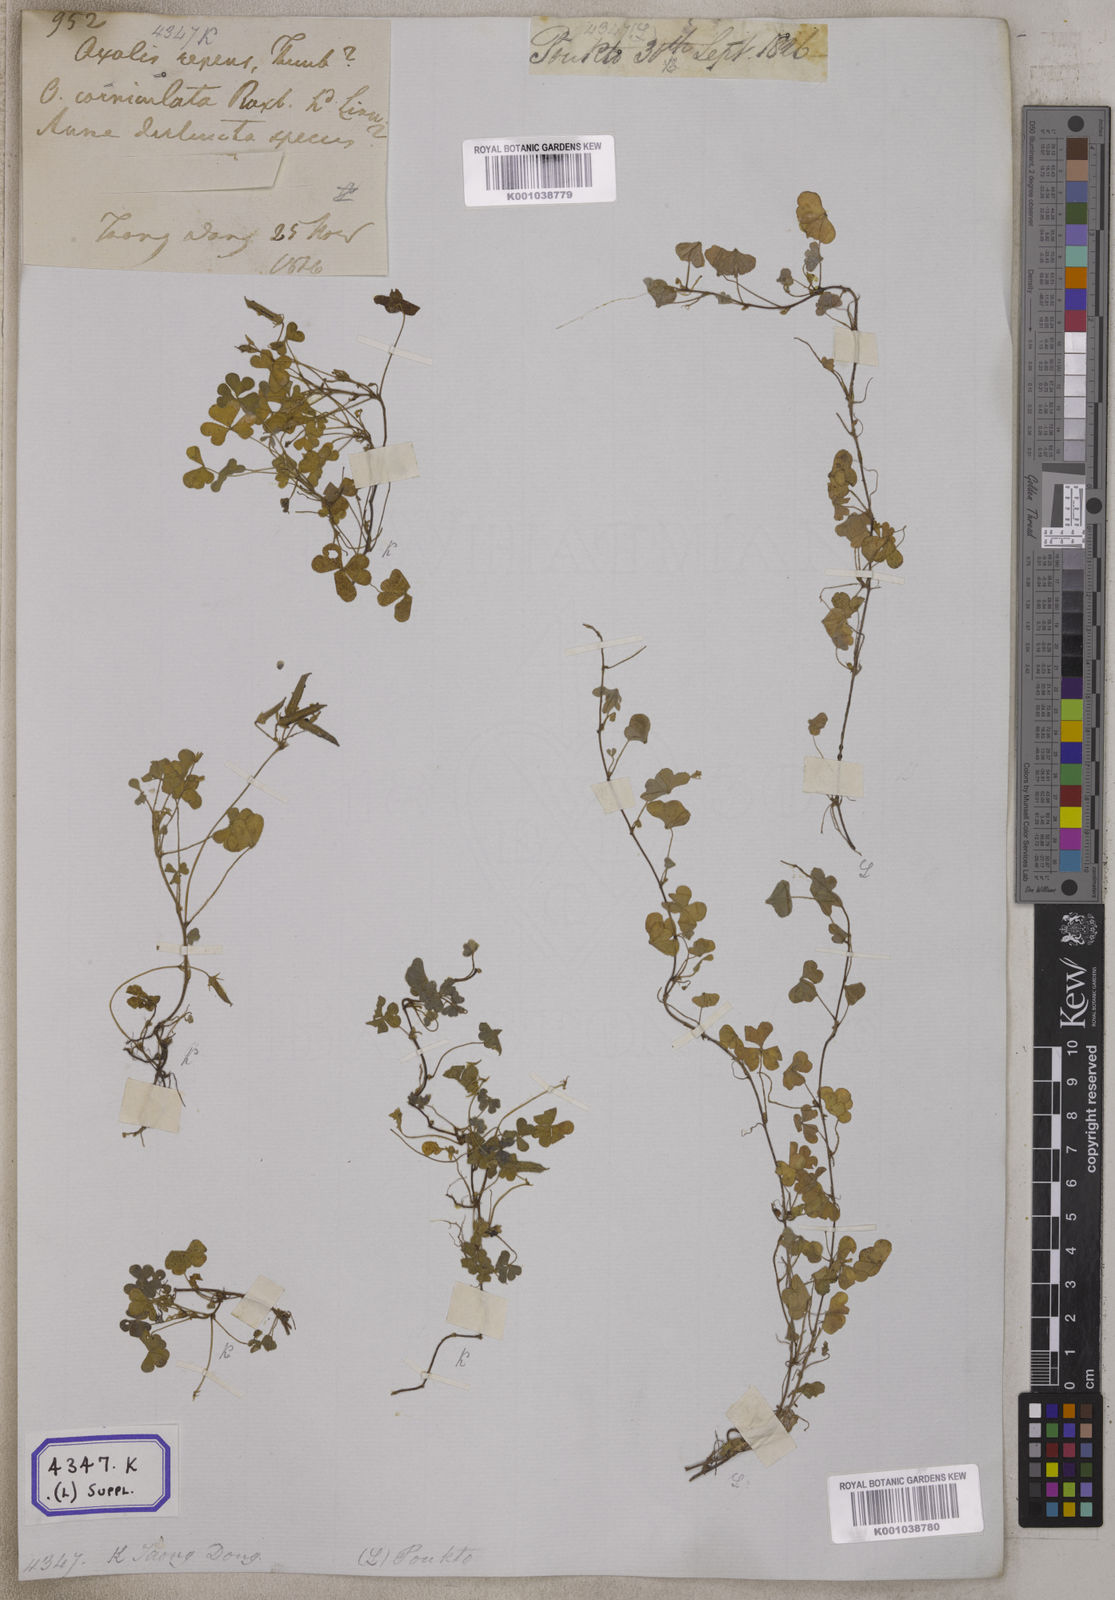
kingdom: Plantae
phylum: Tracheophyta
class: Magnoliopsida
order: Oxalidales
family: Oxalidaceae
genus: Oxalis
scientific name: Oxalis corniculata
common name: Procumbent yellow-sorrel
